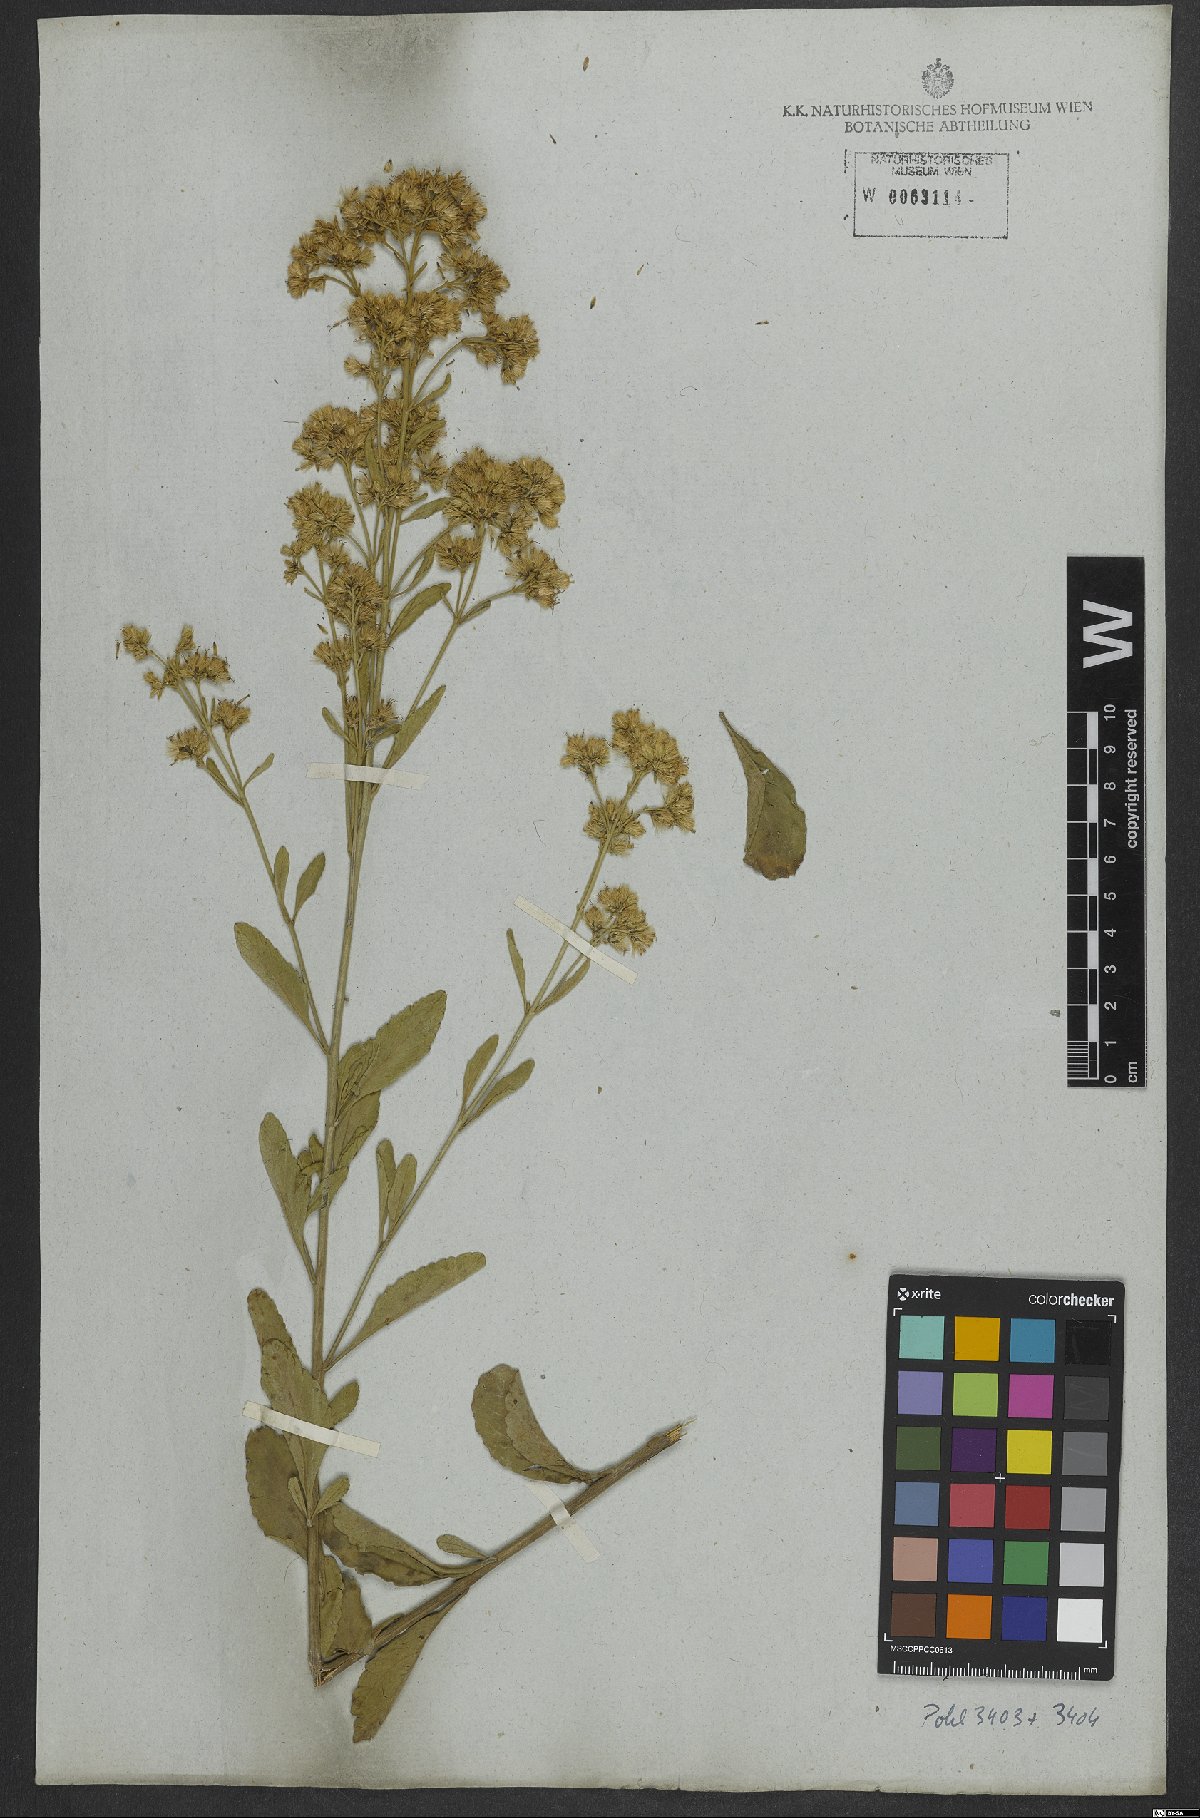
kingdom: Plantae
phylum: Tracheophyta
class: Magnoliopsida
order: Asterales
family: Asteraceae
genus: Stomatanthes
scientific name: Stomatanthes pernambucensis
